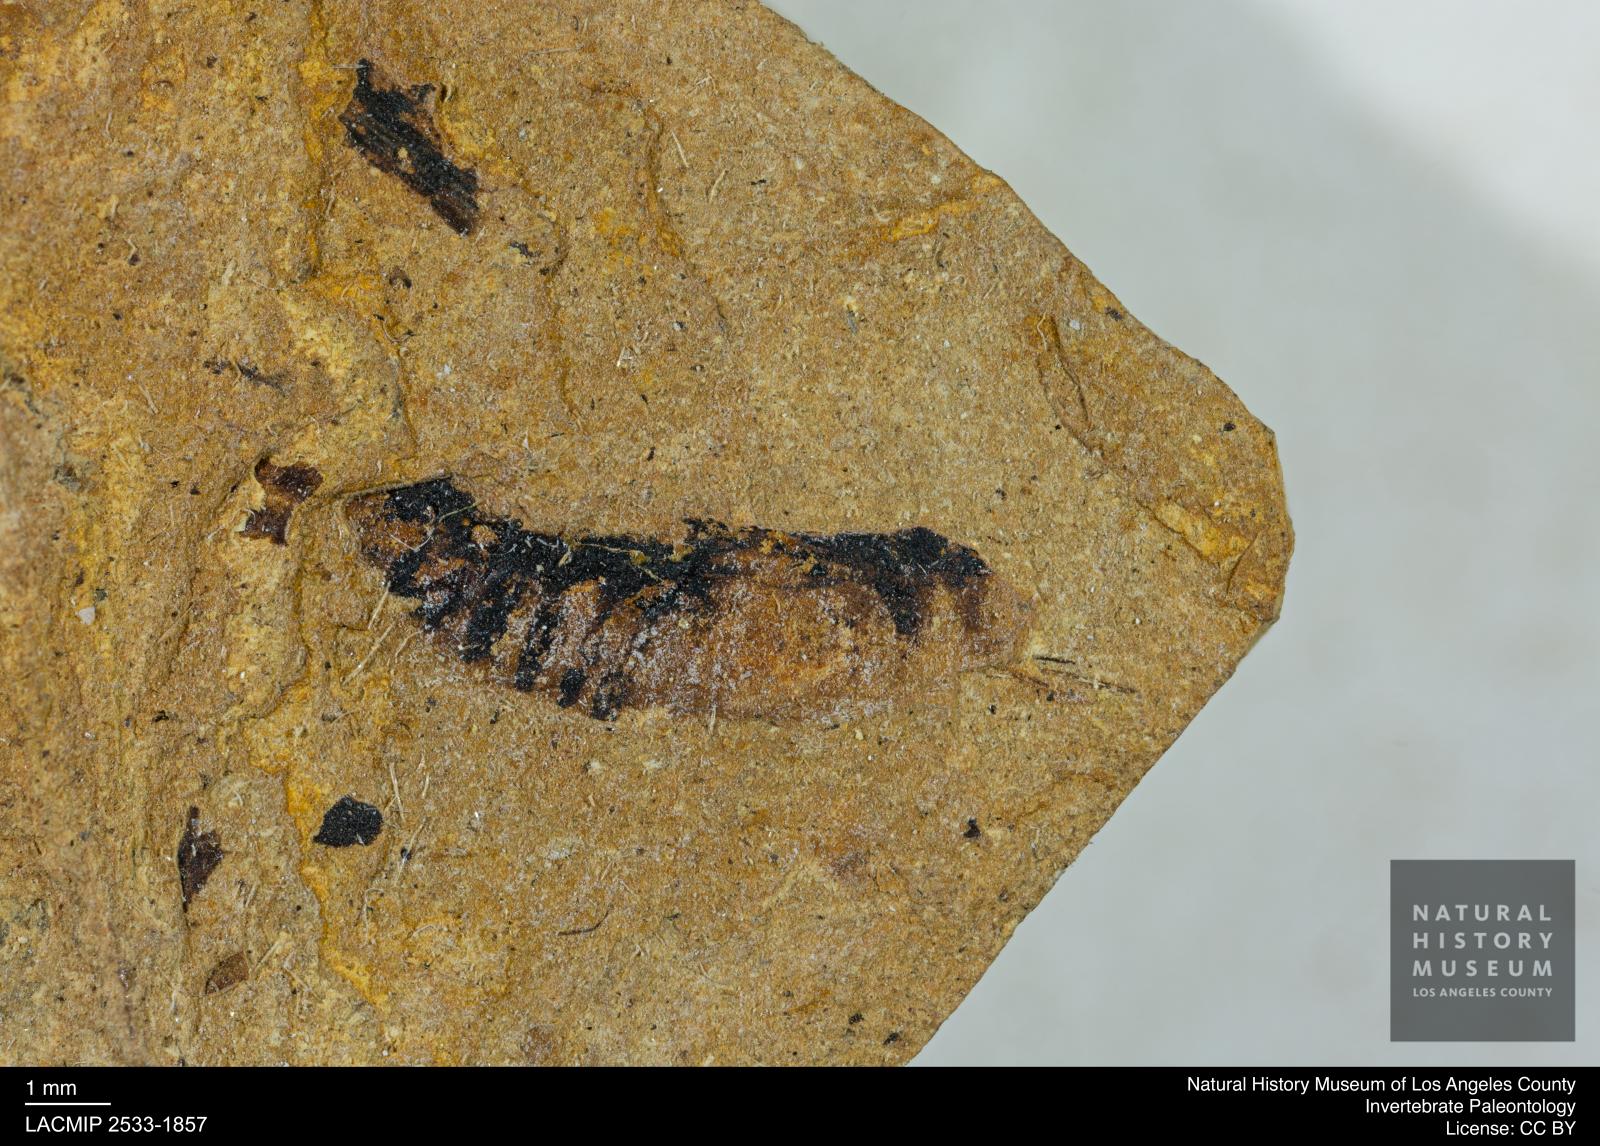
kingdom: Animalia
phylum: Arthropoda
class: Insecta
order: Hemiptera
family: Notonectidae
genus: Notonecta
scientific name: Notonecta
